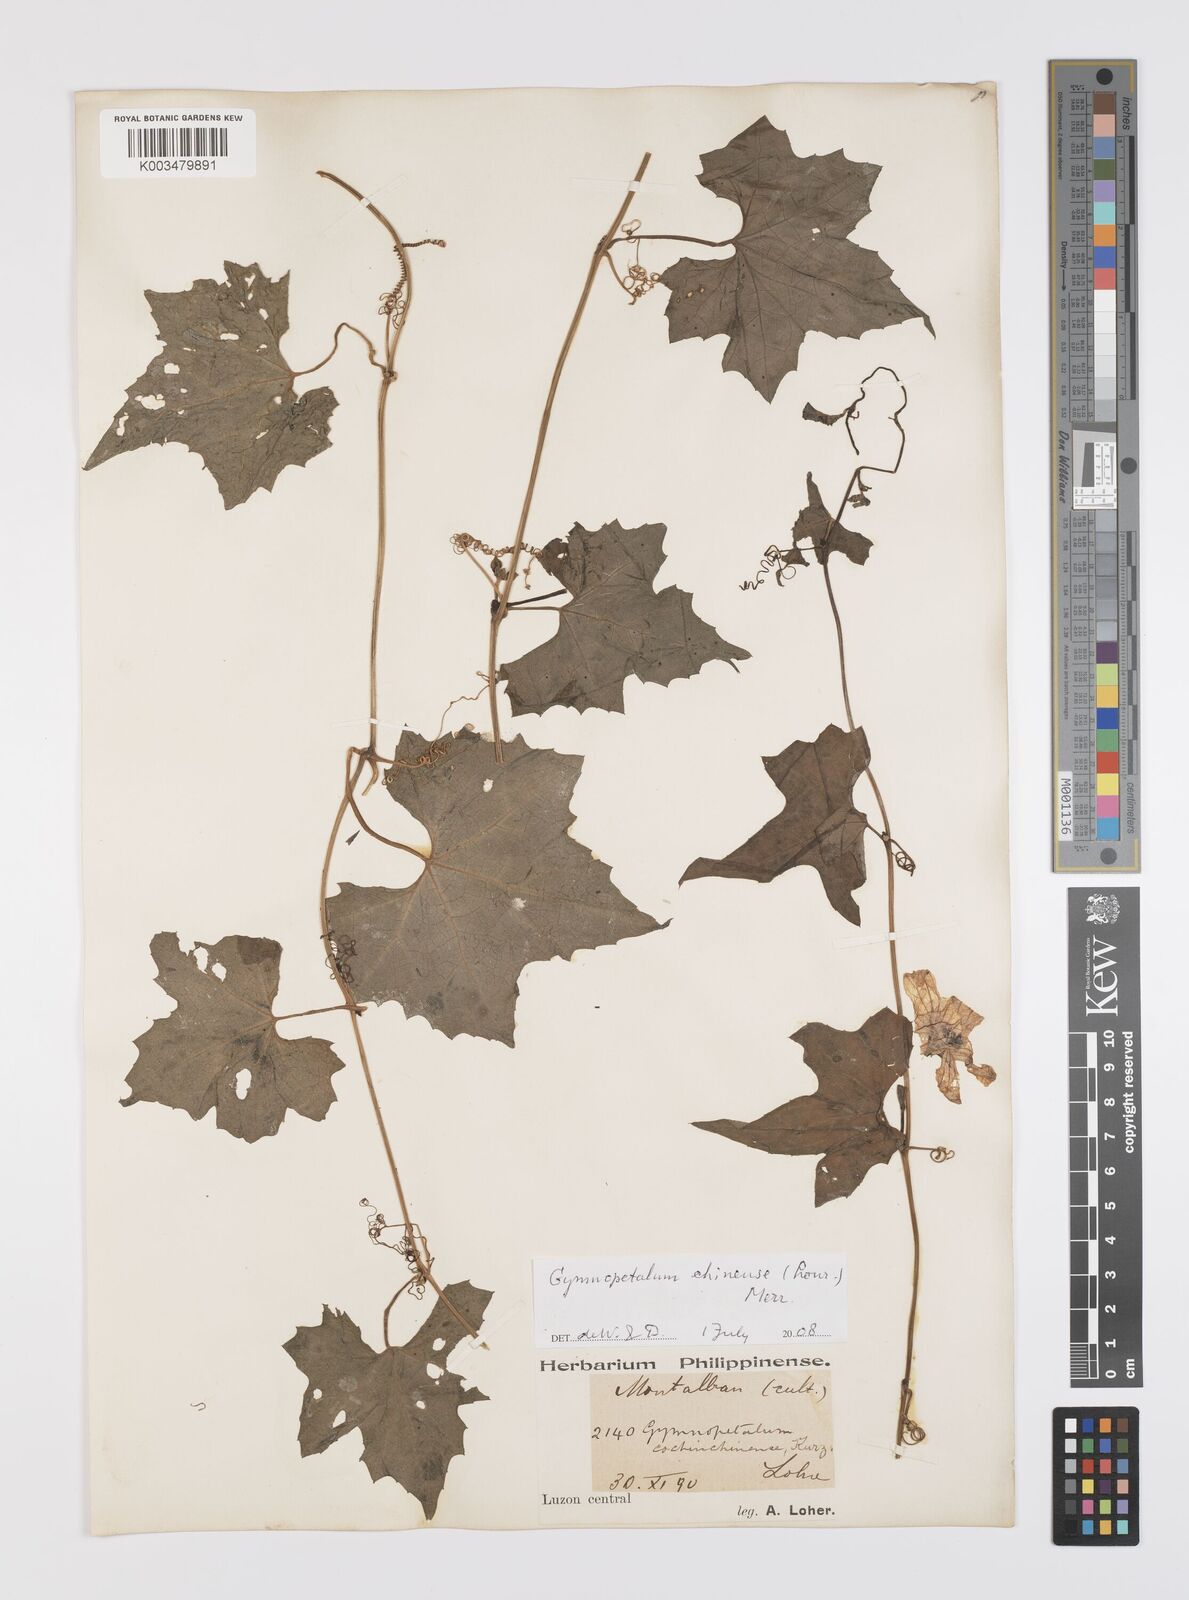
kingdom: Plantae
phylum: Tracheophyta
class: Magnoliopsida
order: Cucurbitales
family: Cucurbitaceae
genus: Trichosanthes
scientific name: Trichosanthes costata
